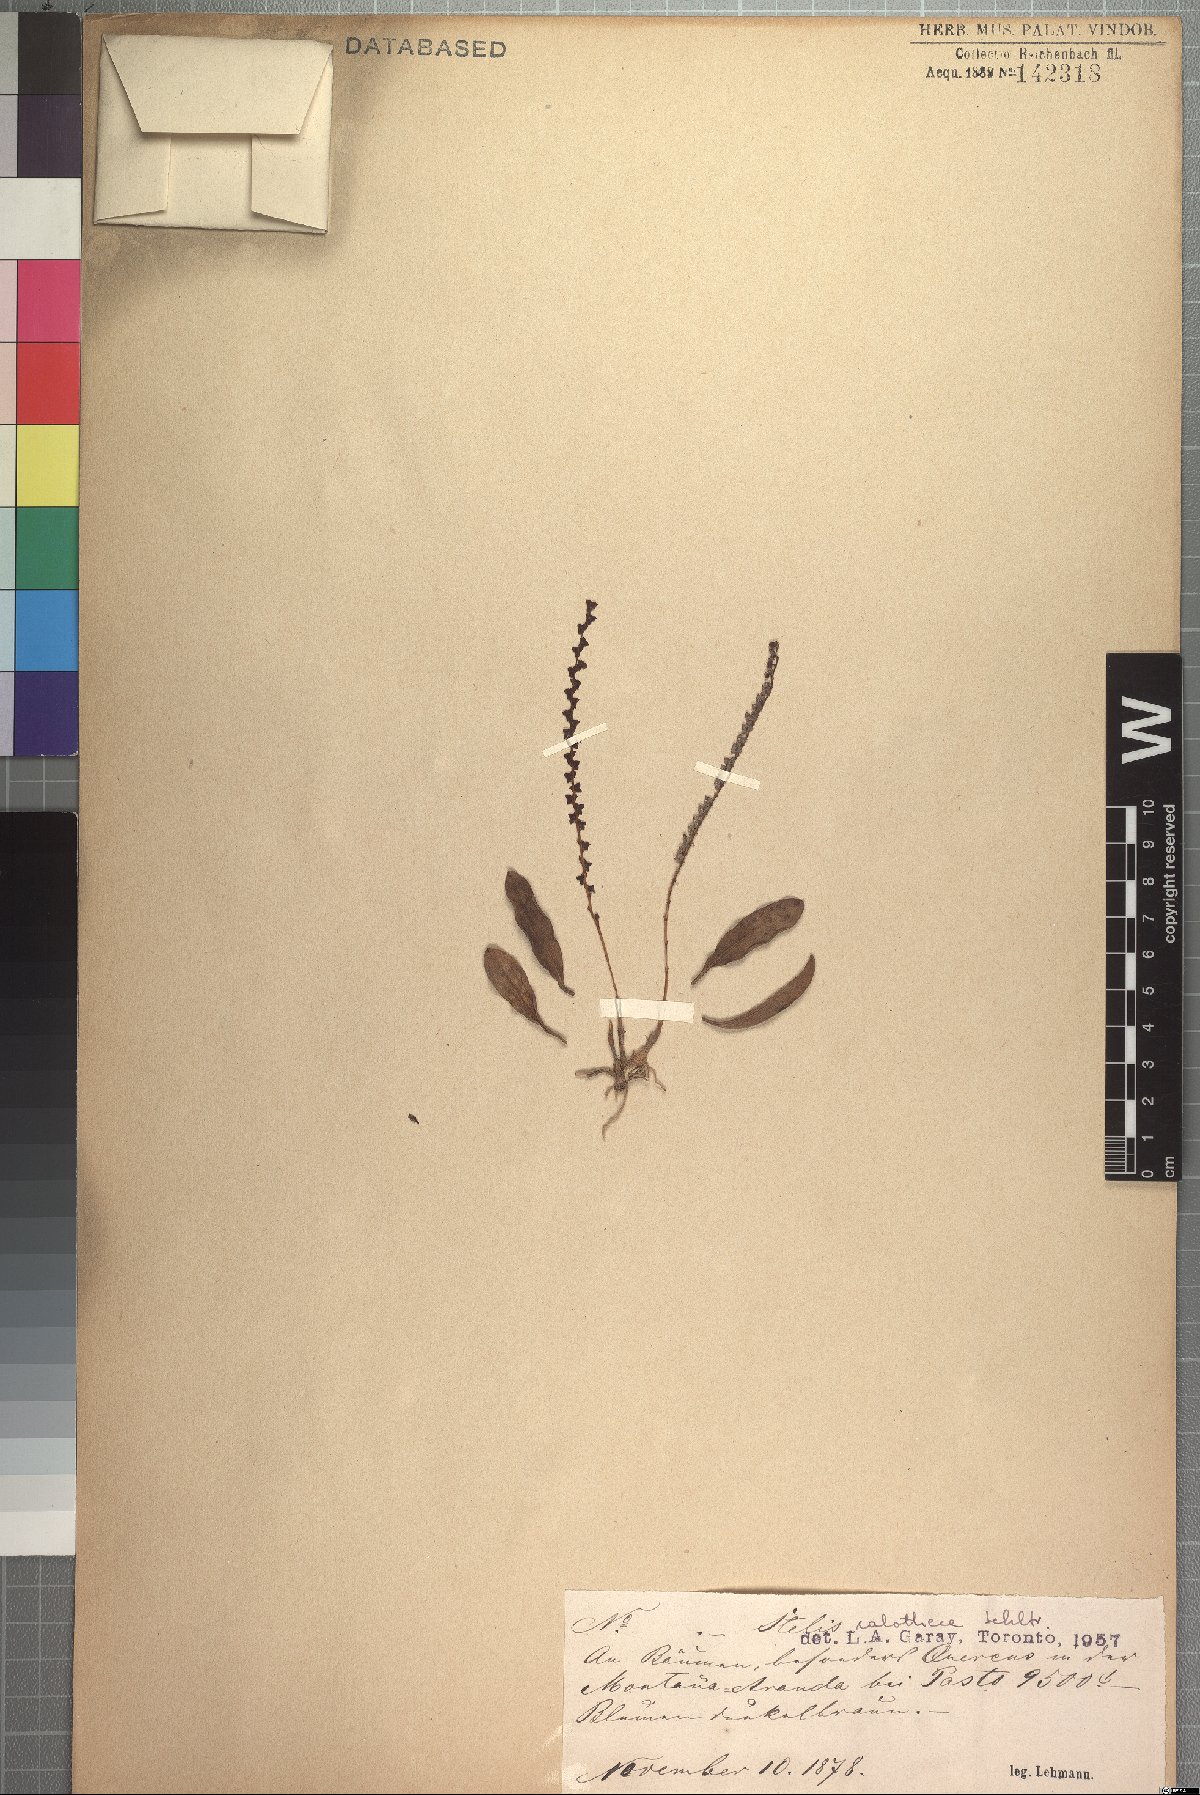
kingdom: Plantae
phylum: Tracheophyta
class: Liliopsida
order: Asparagales
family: Orchidaceae
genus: Stelis
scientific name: Stelis calothece
